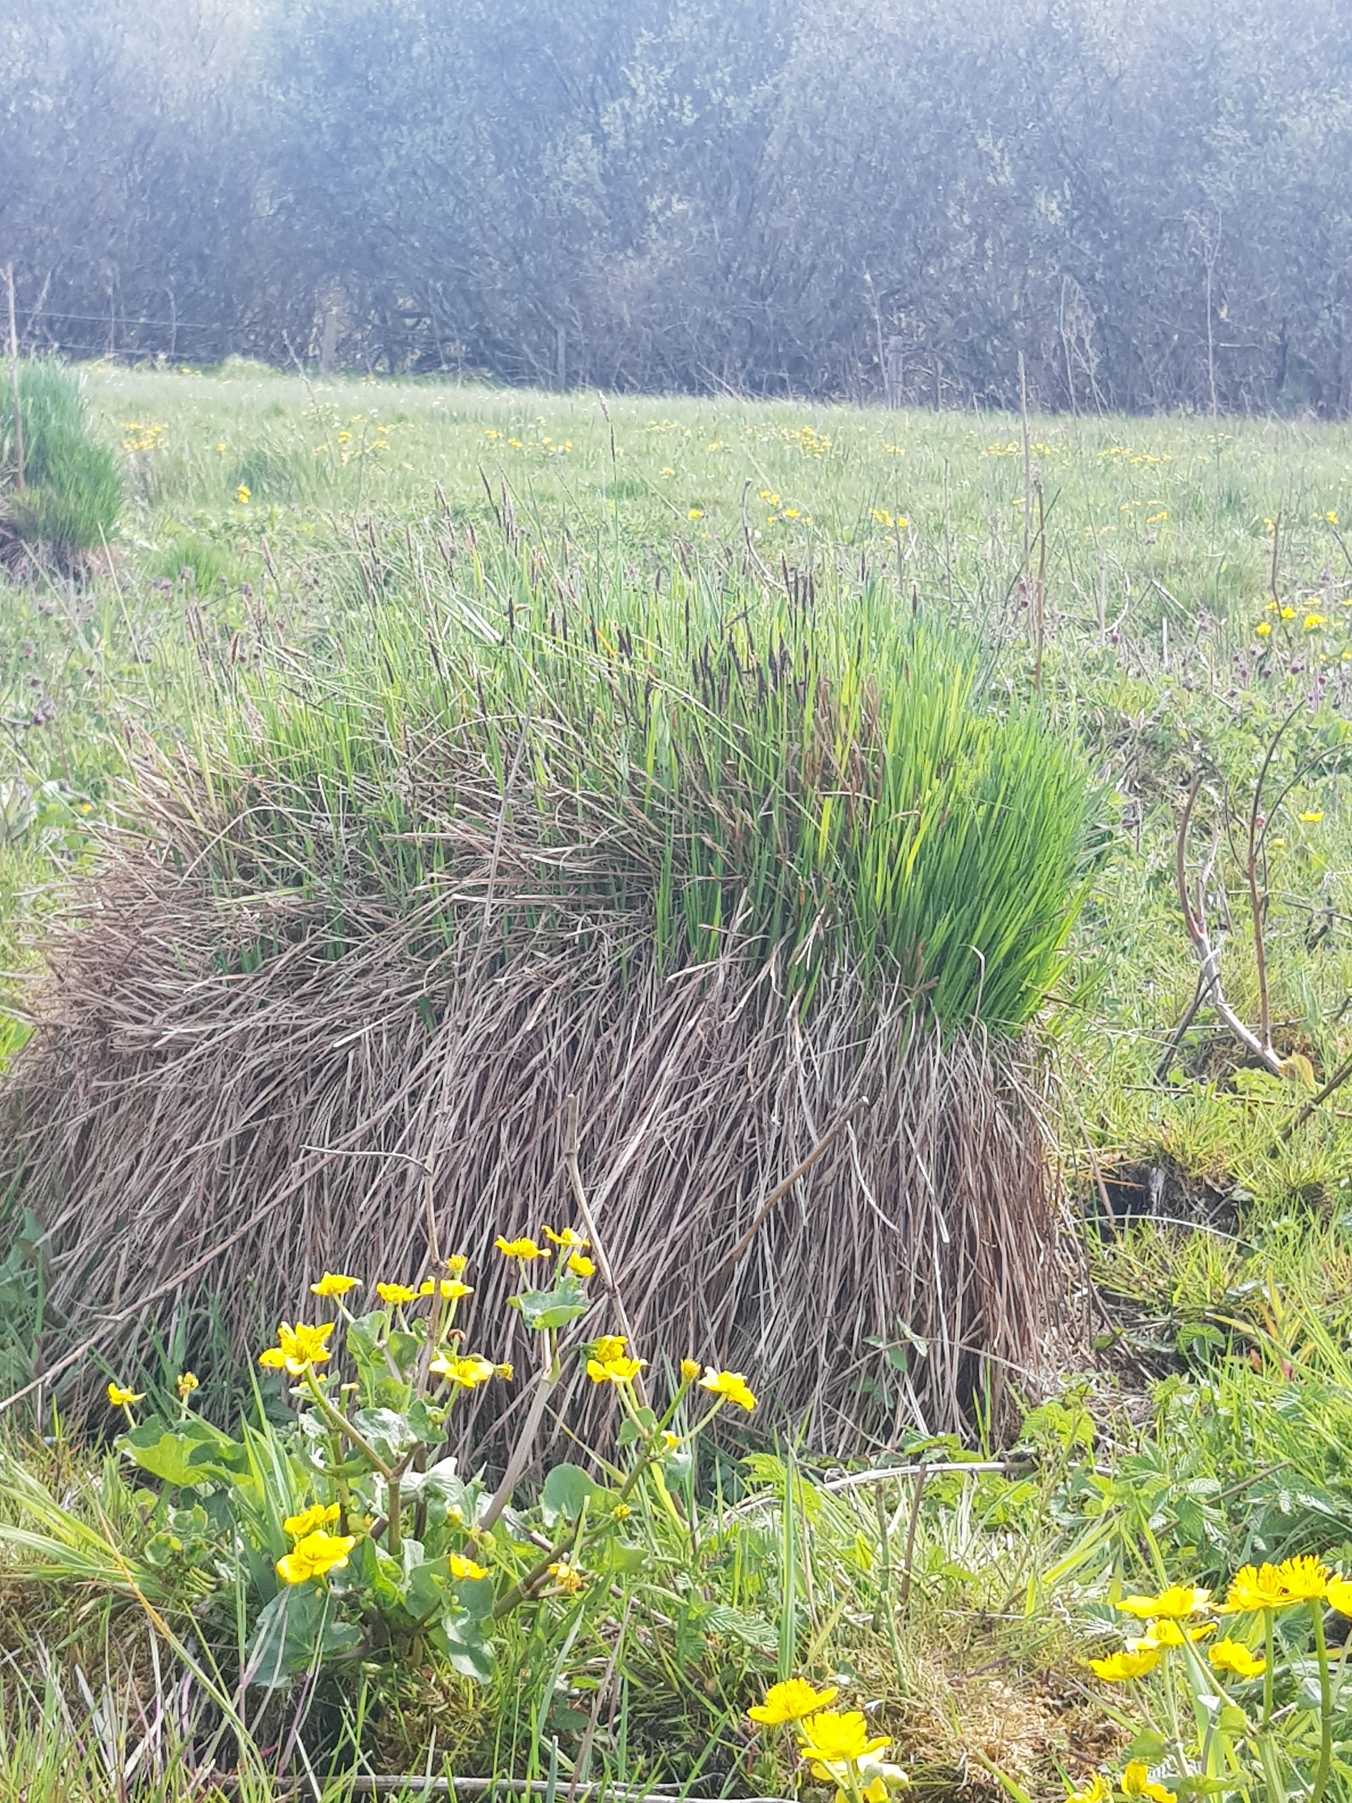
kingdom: Plantae
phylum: Tracheophyta
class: Liliopsida
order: Poales
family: Cyperaceae
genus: Carex
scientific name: Carex cespitosa
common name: Tue-star
